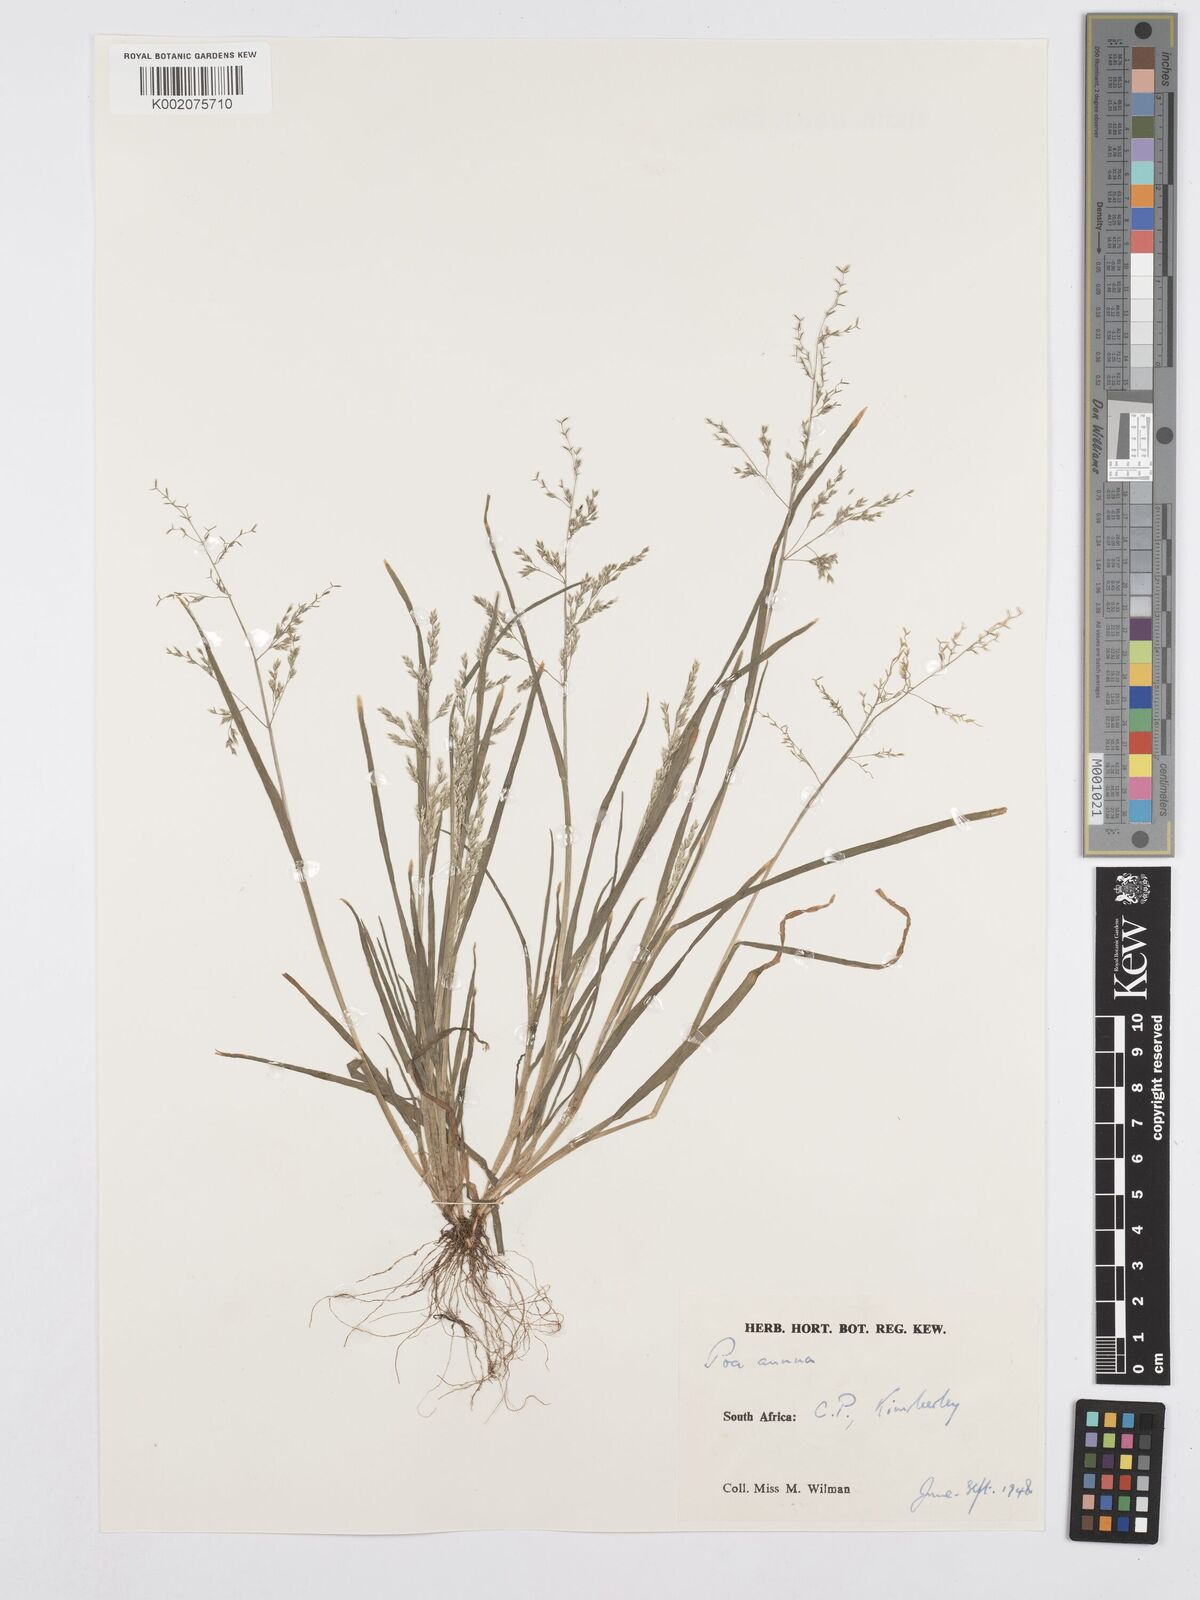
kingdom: Plantae
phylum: Tracheophyta
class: Liliopsida
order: Poales
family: Poaceae
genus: Poa
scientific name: Poa annua
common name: Annual bluegrass
